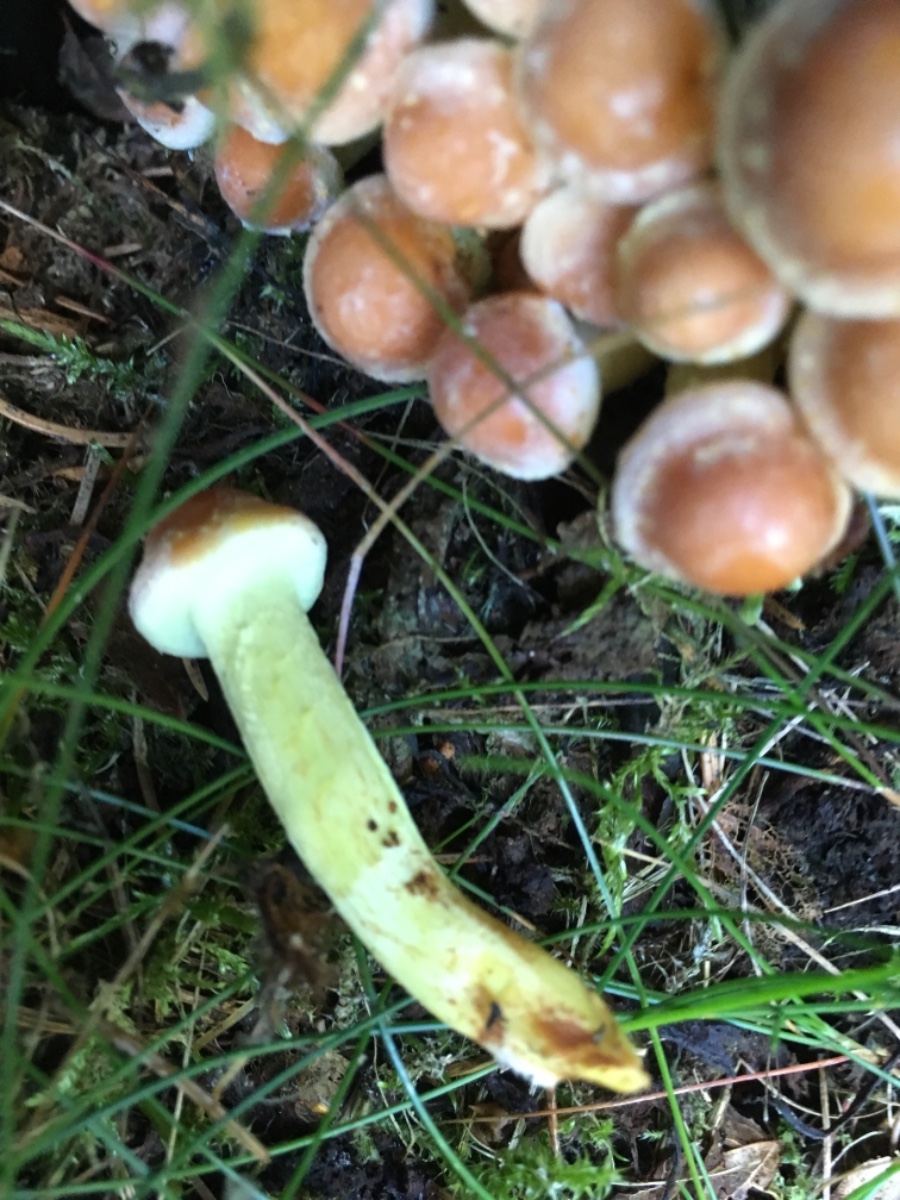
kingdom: Fungi
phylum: Basidiomycota
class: Agaricomycetes
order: Agaricales
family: Strophariaceae
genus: Hypholoma
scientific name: Hypholoma fasciculare
